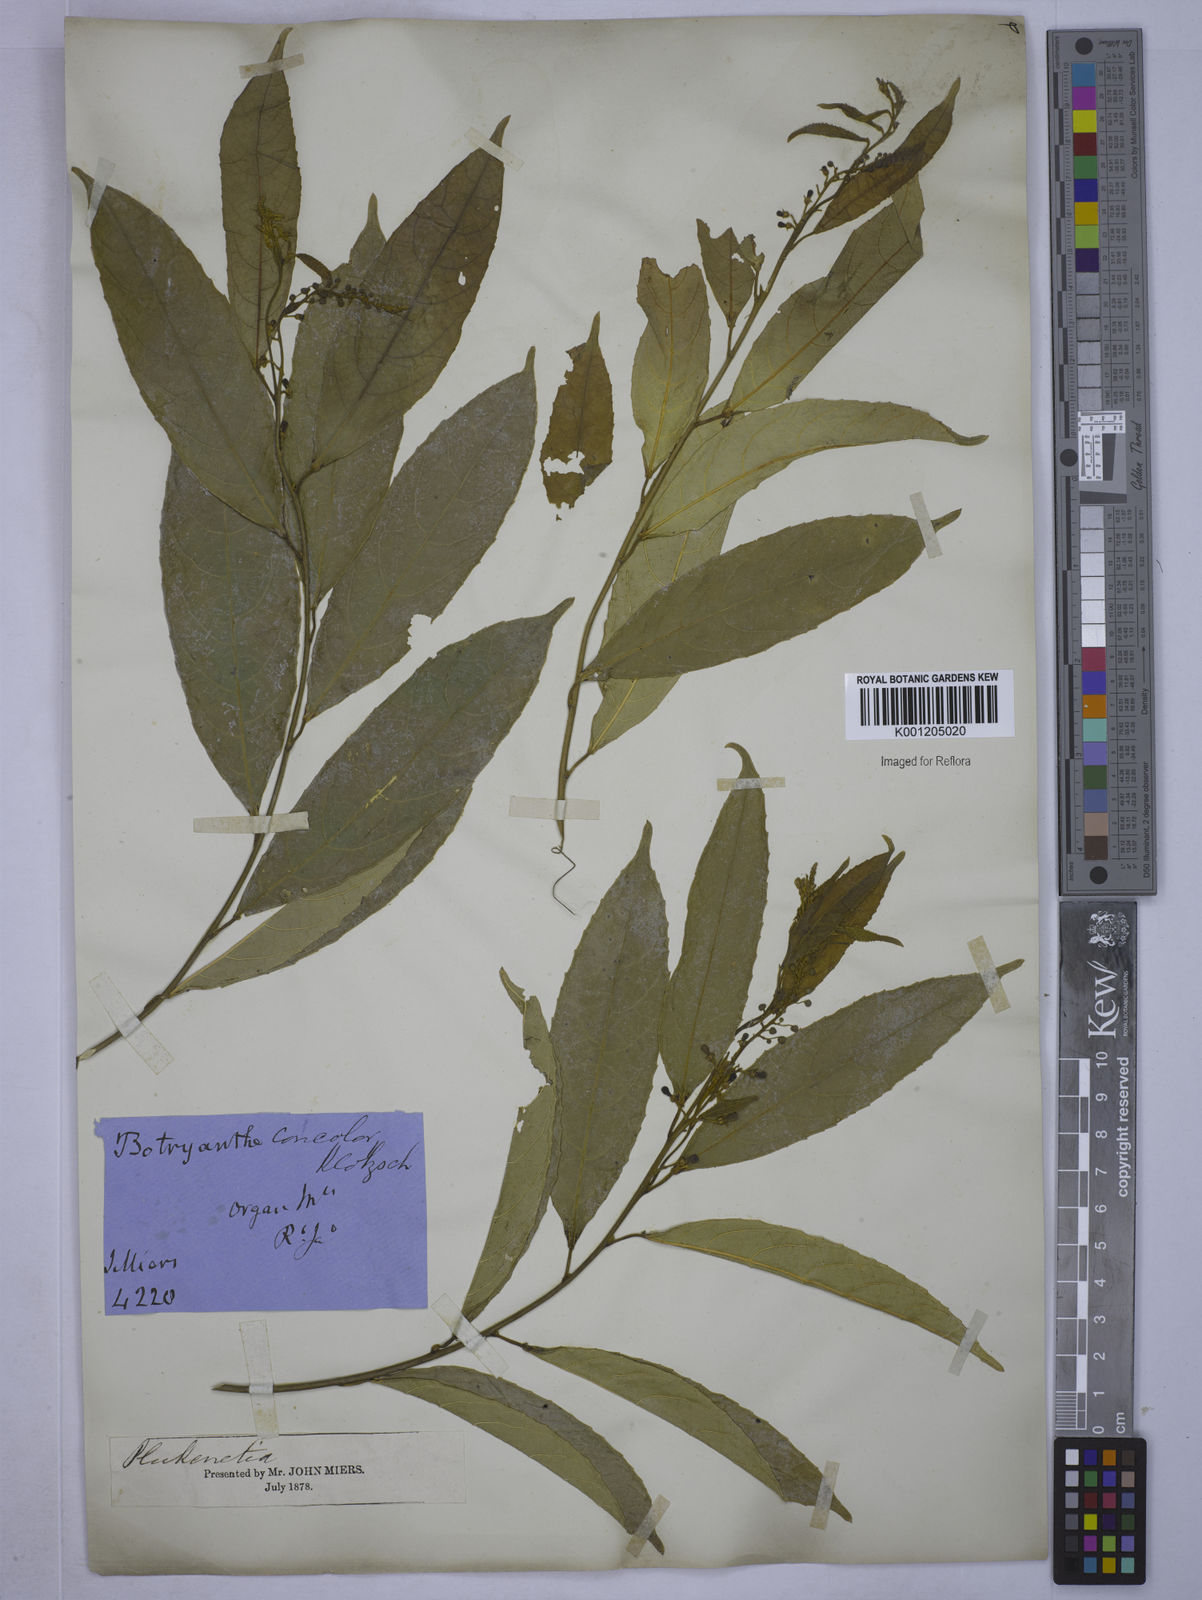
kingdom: Plantae
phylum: Tracheophyta
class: Magnoliopsida
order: Malpighiales
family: Euphorbiaceae
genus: Plukenetia
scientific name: Plukenetia serrata
